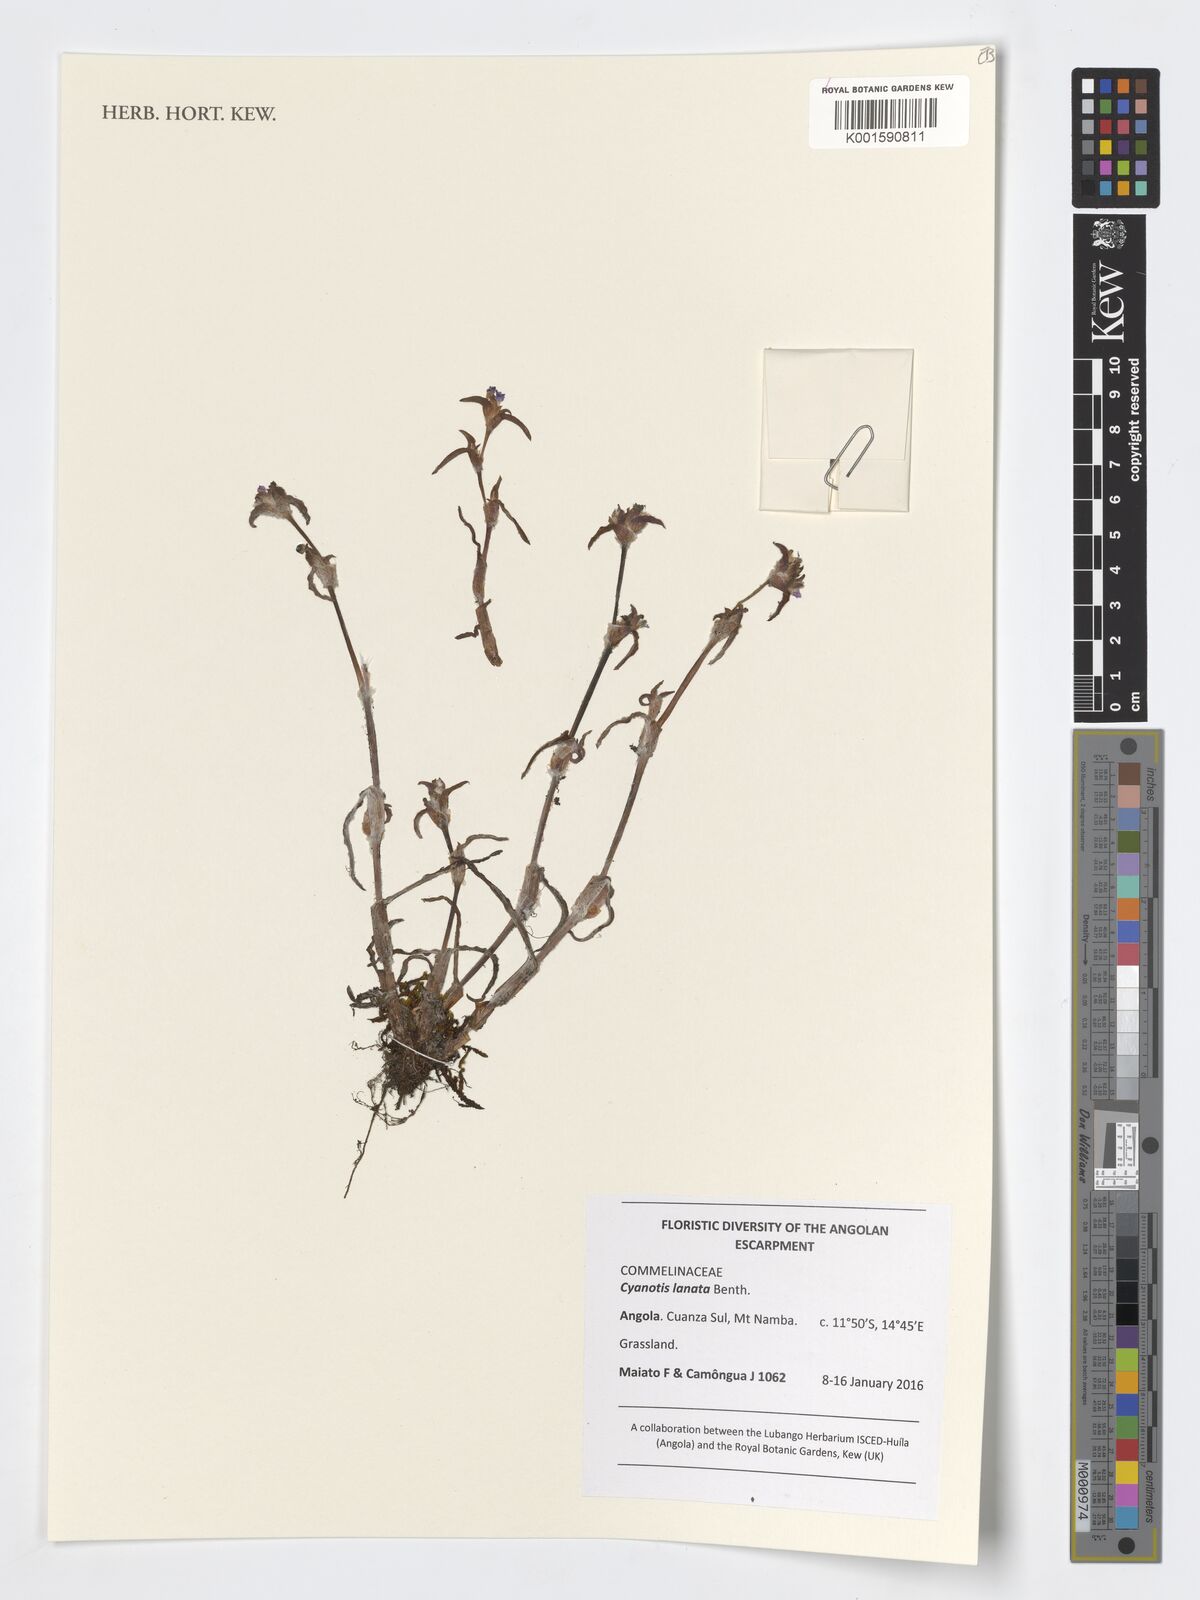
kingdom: Plantae
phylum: Tracheophyta
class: Liliopsida
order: Commelinales
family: Commelinaceae
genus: Cyanotis
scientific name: Cyanotis lanata
